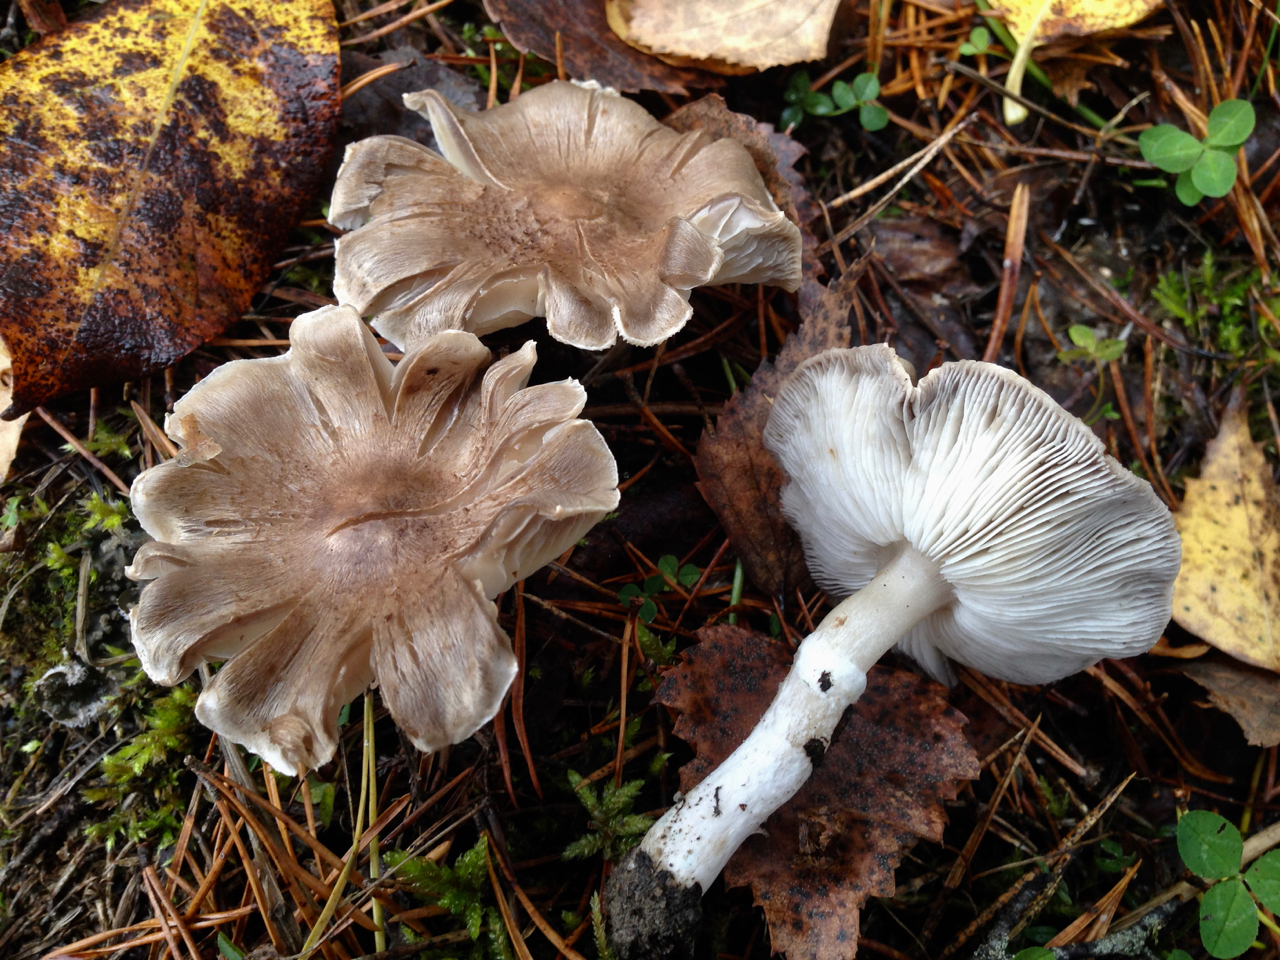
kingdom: Fungi
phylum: Basidiomycota
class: Agaricomycetes
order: Agaricales
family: Tricholomataceae
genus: Tricholoma
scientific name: Tricholoma cingulatum
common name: Girdled knight
